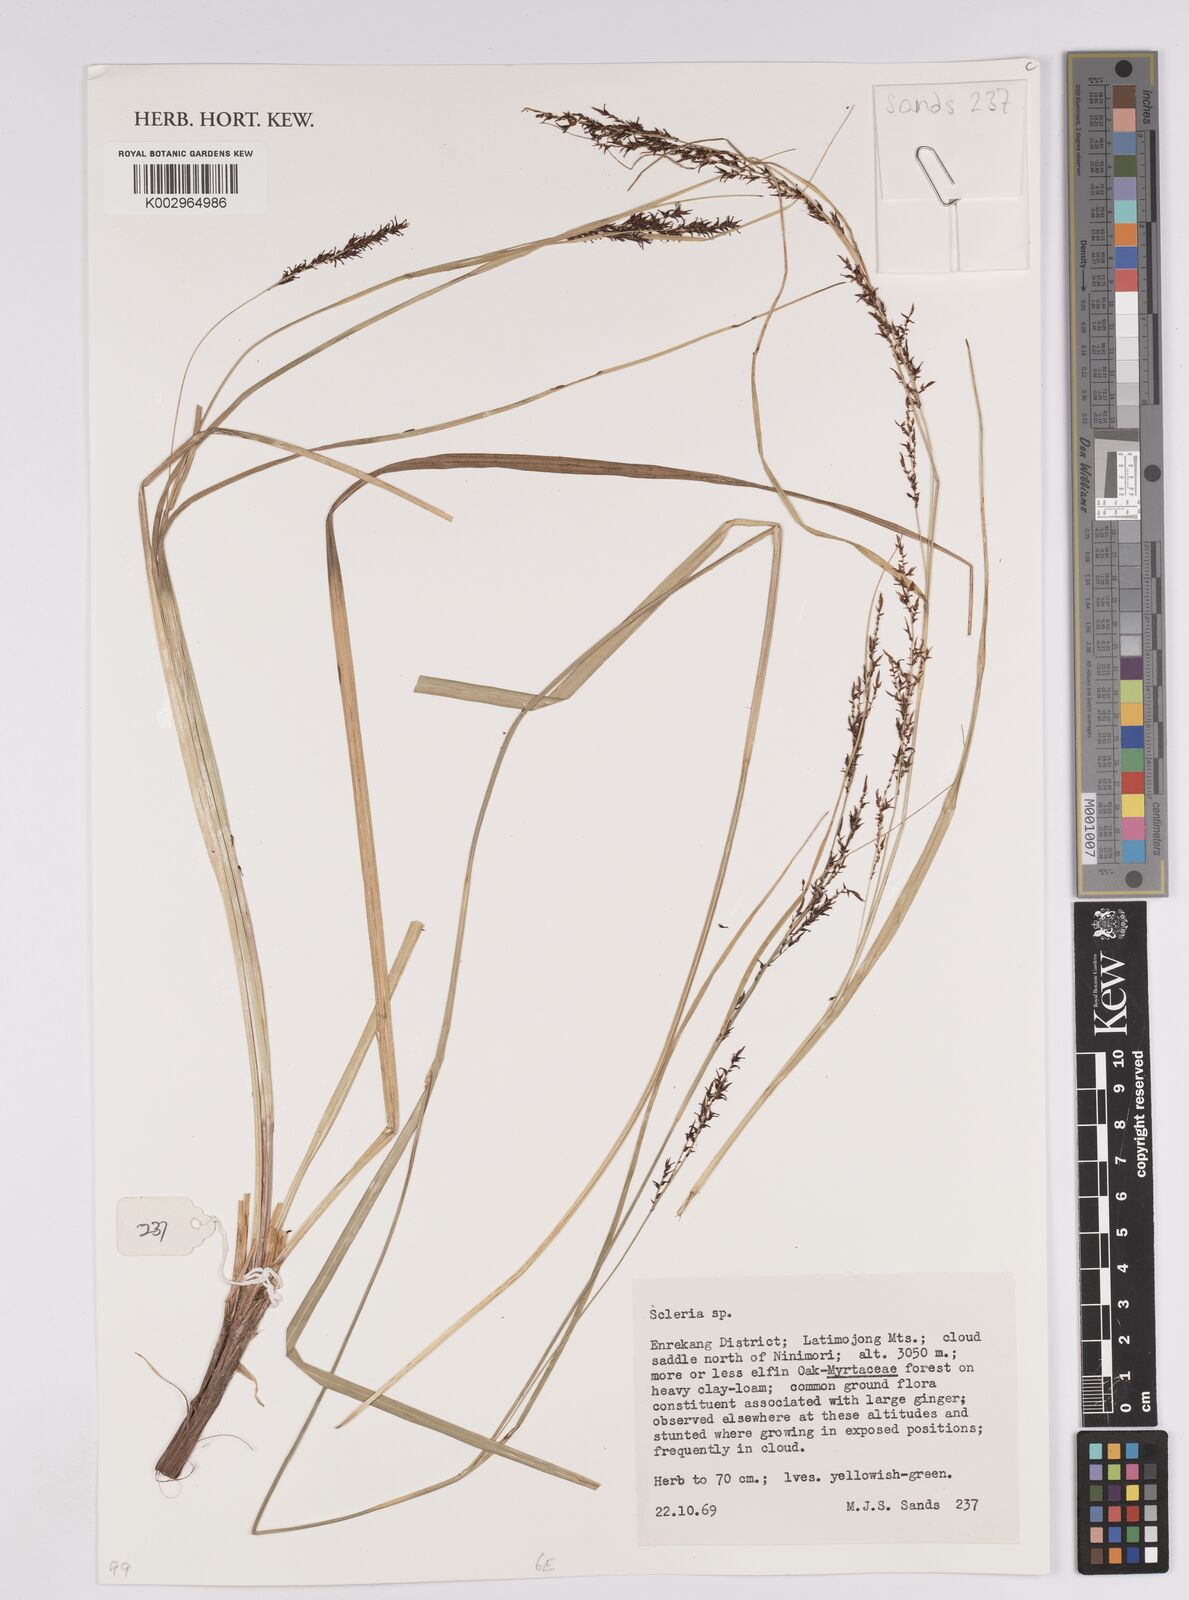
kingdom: Plantae
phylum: Tracheophyta
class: Liliopsida
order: Poales
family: Cyperaceae
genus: Scleria
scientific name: Scleria
